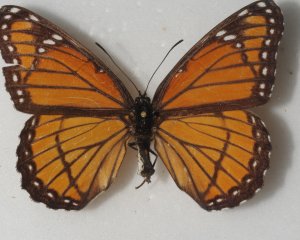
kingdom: Animalia
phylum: Arthropoda
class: Insecta
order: Lepidoptera
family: Nymphalidae
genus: Limenitis
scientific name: Limenitis archippus
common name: Viceroy
